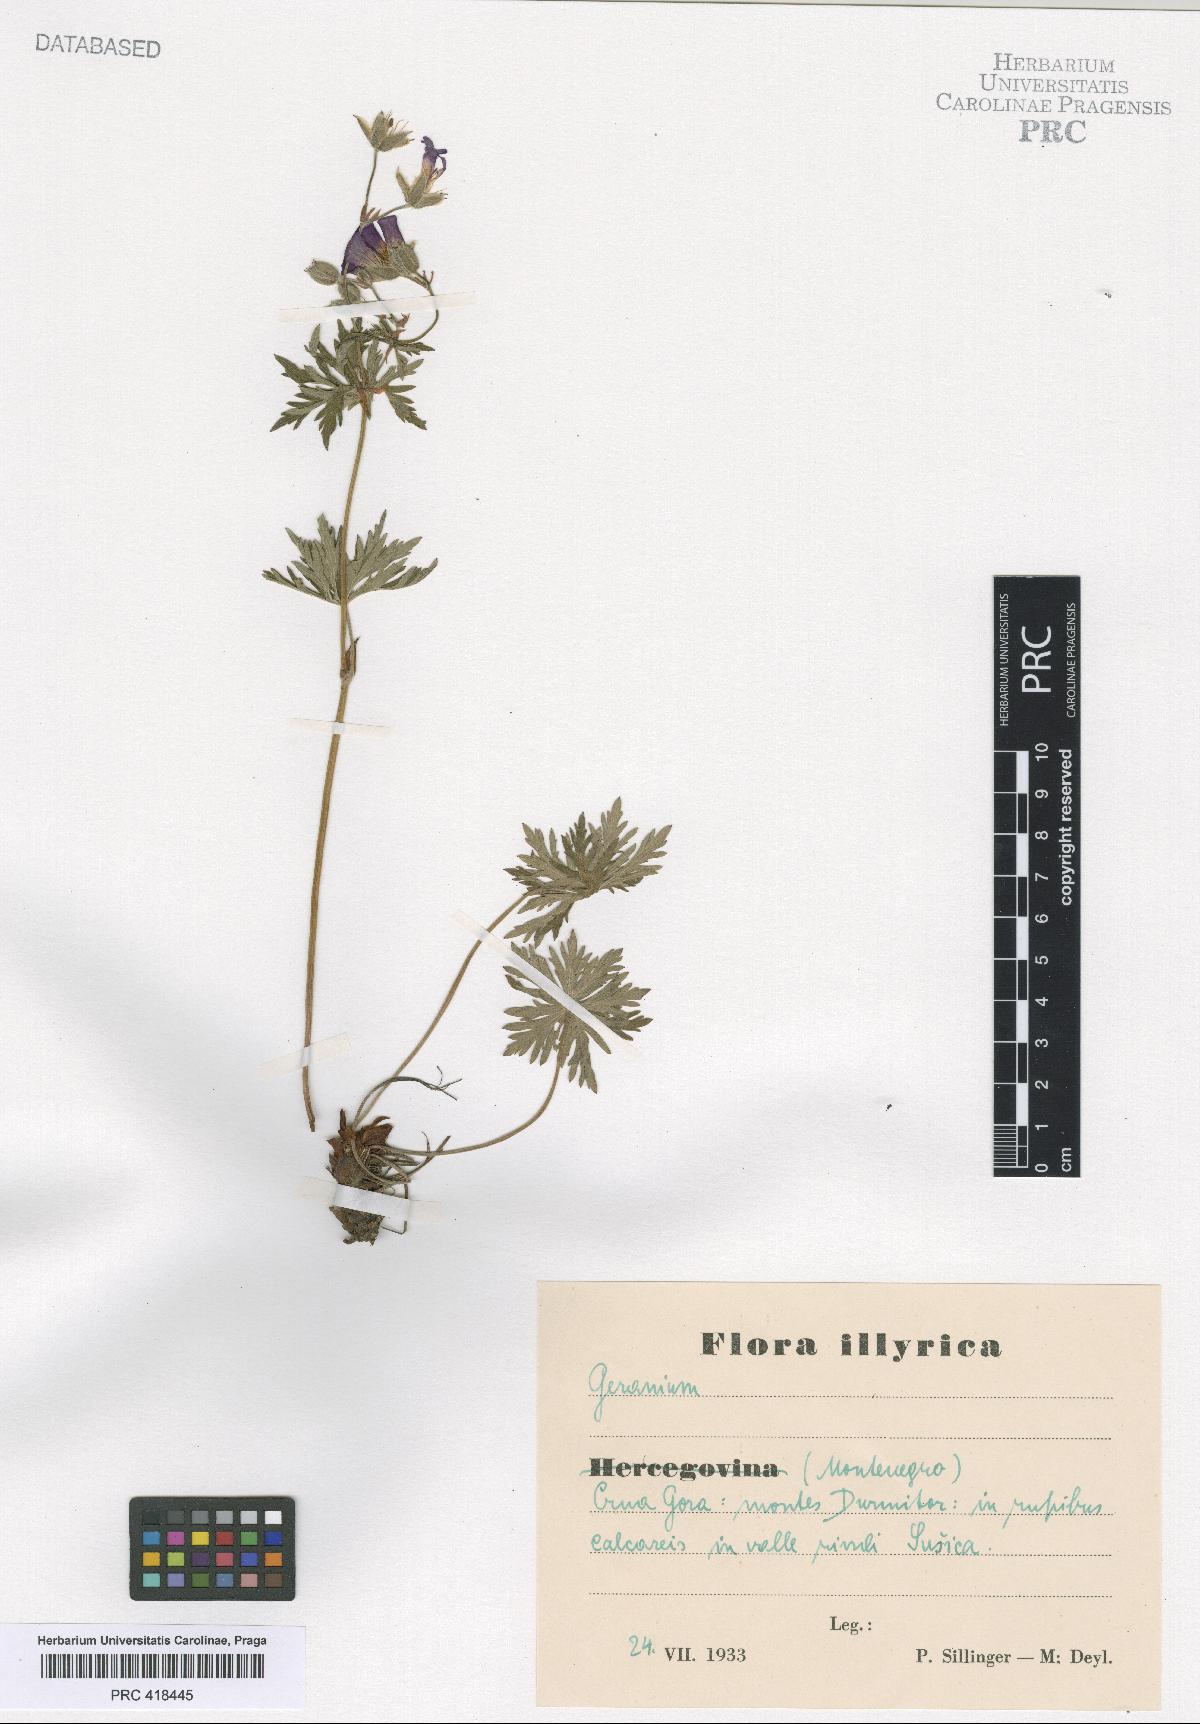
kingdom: Plantae
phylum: Tracheophyta
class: Magnoliopsida
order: Geraniales
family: Geraniaceae
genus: Geranium
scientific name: Geranium caeruleatum
